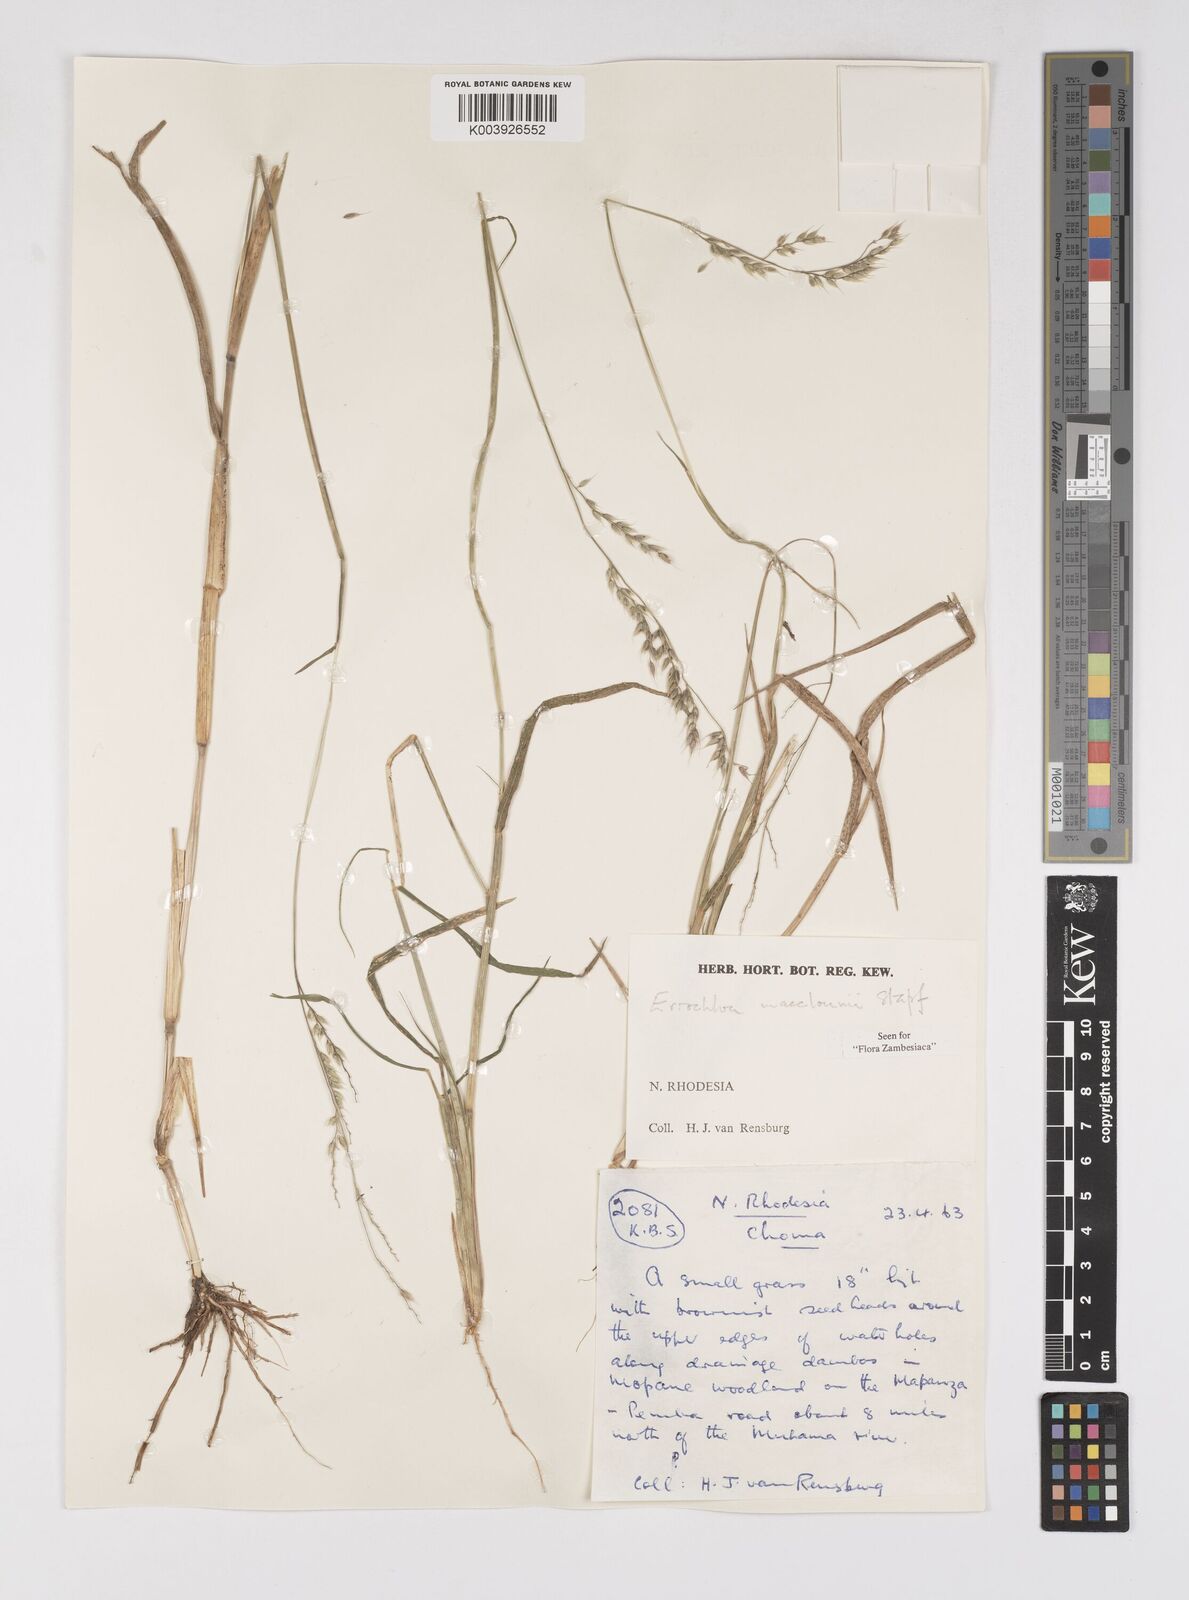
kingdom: Plantae
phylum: Tracheophyta
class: Liliopsida
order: Poales
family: Poaceae
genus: Eriochloa
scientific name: Eriochloa macclounii
